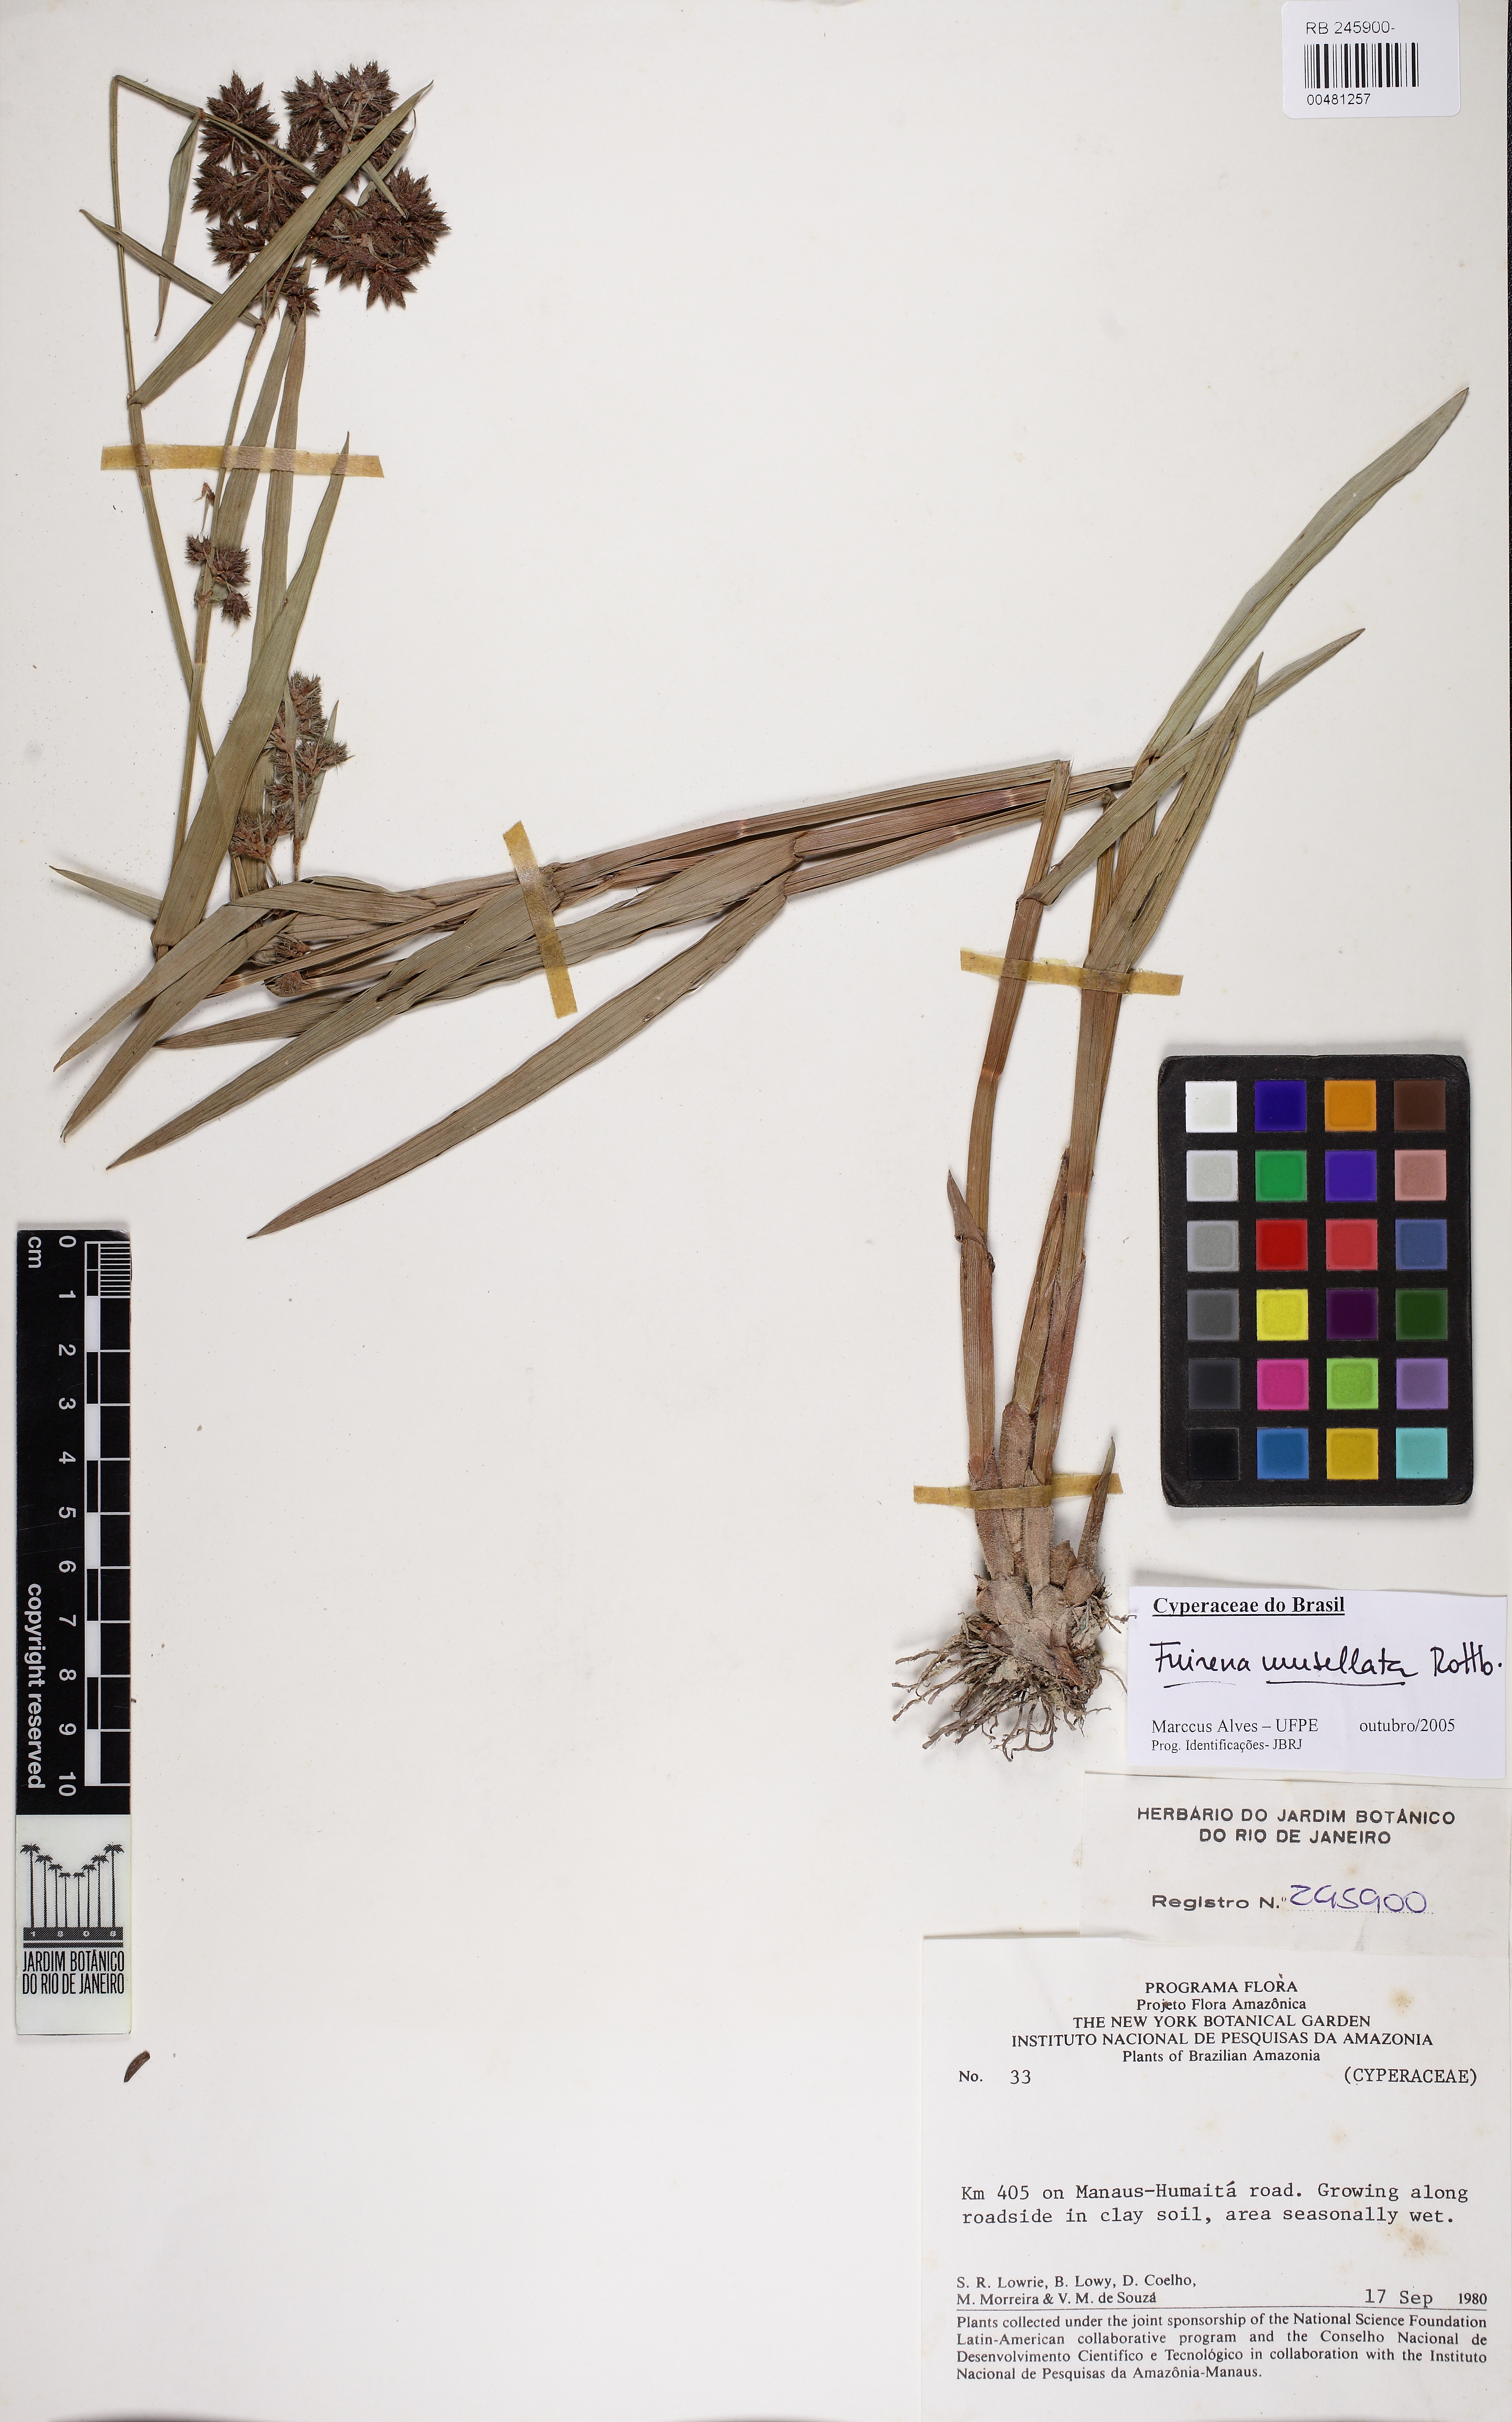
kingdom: Plantae
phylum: Tracheophyta
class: Liliopsida
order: Poales
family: Cyperaceae
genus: Fuirena
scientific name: Fuirena umbellata
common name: Yefen
